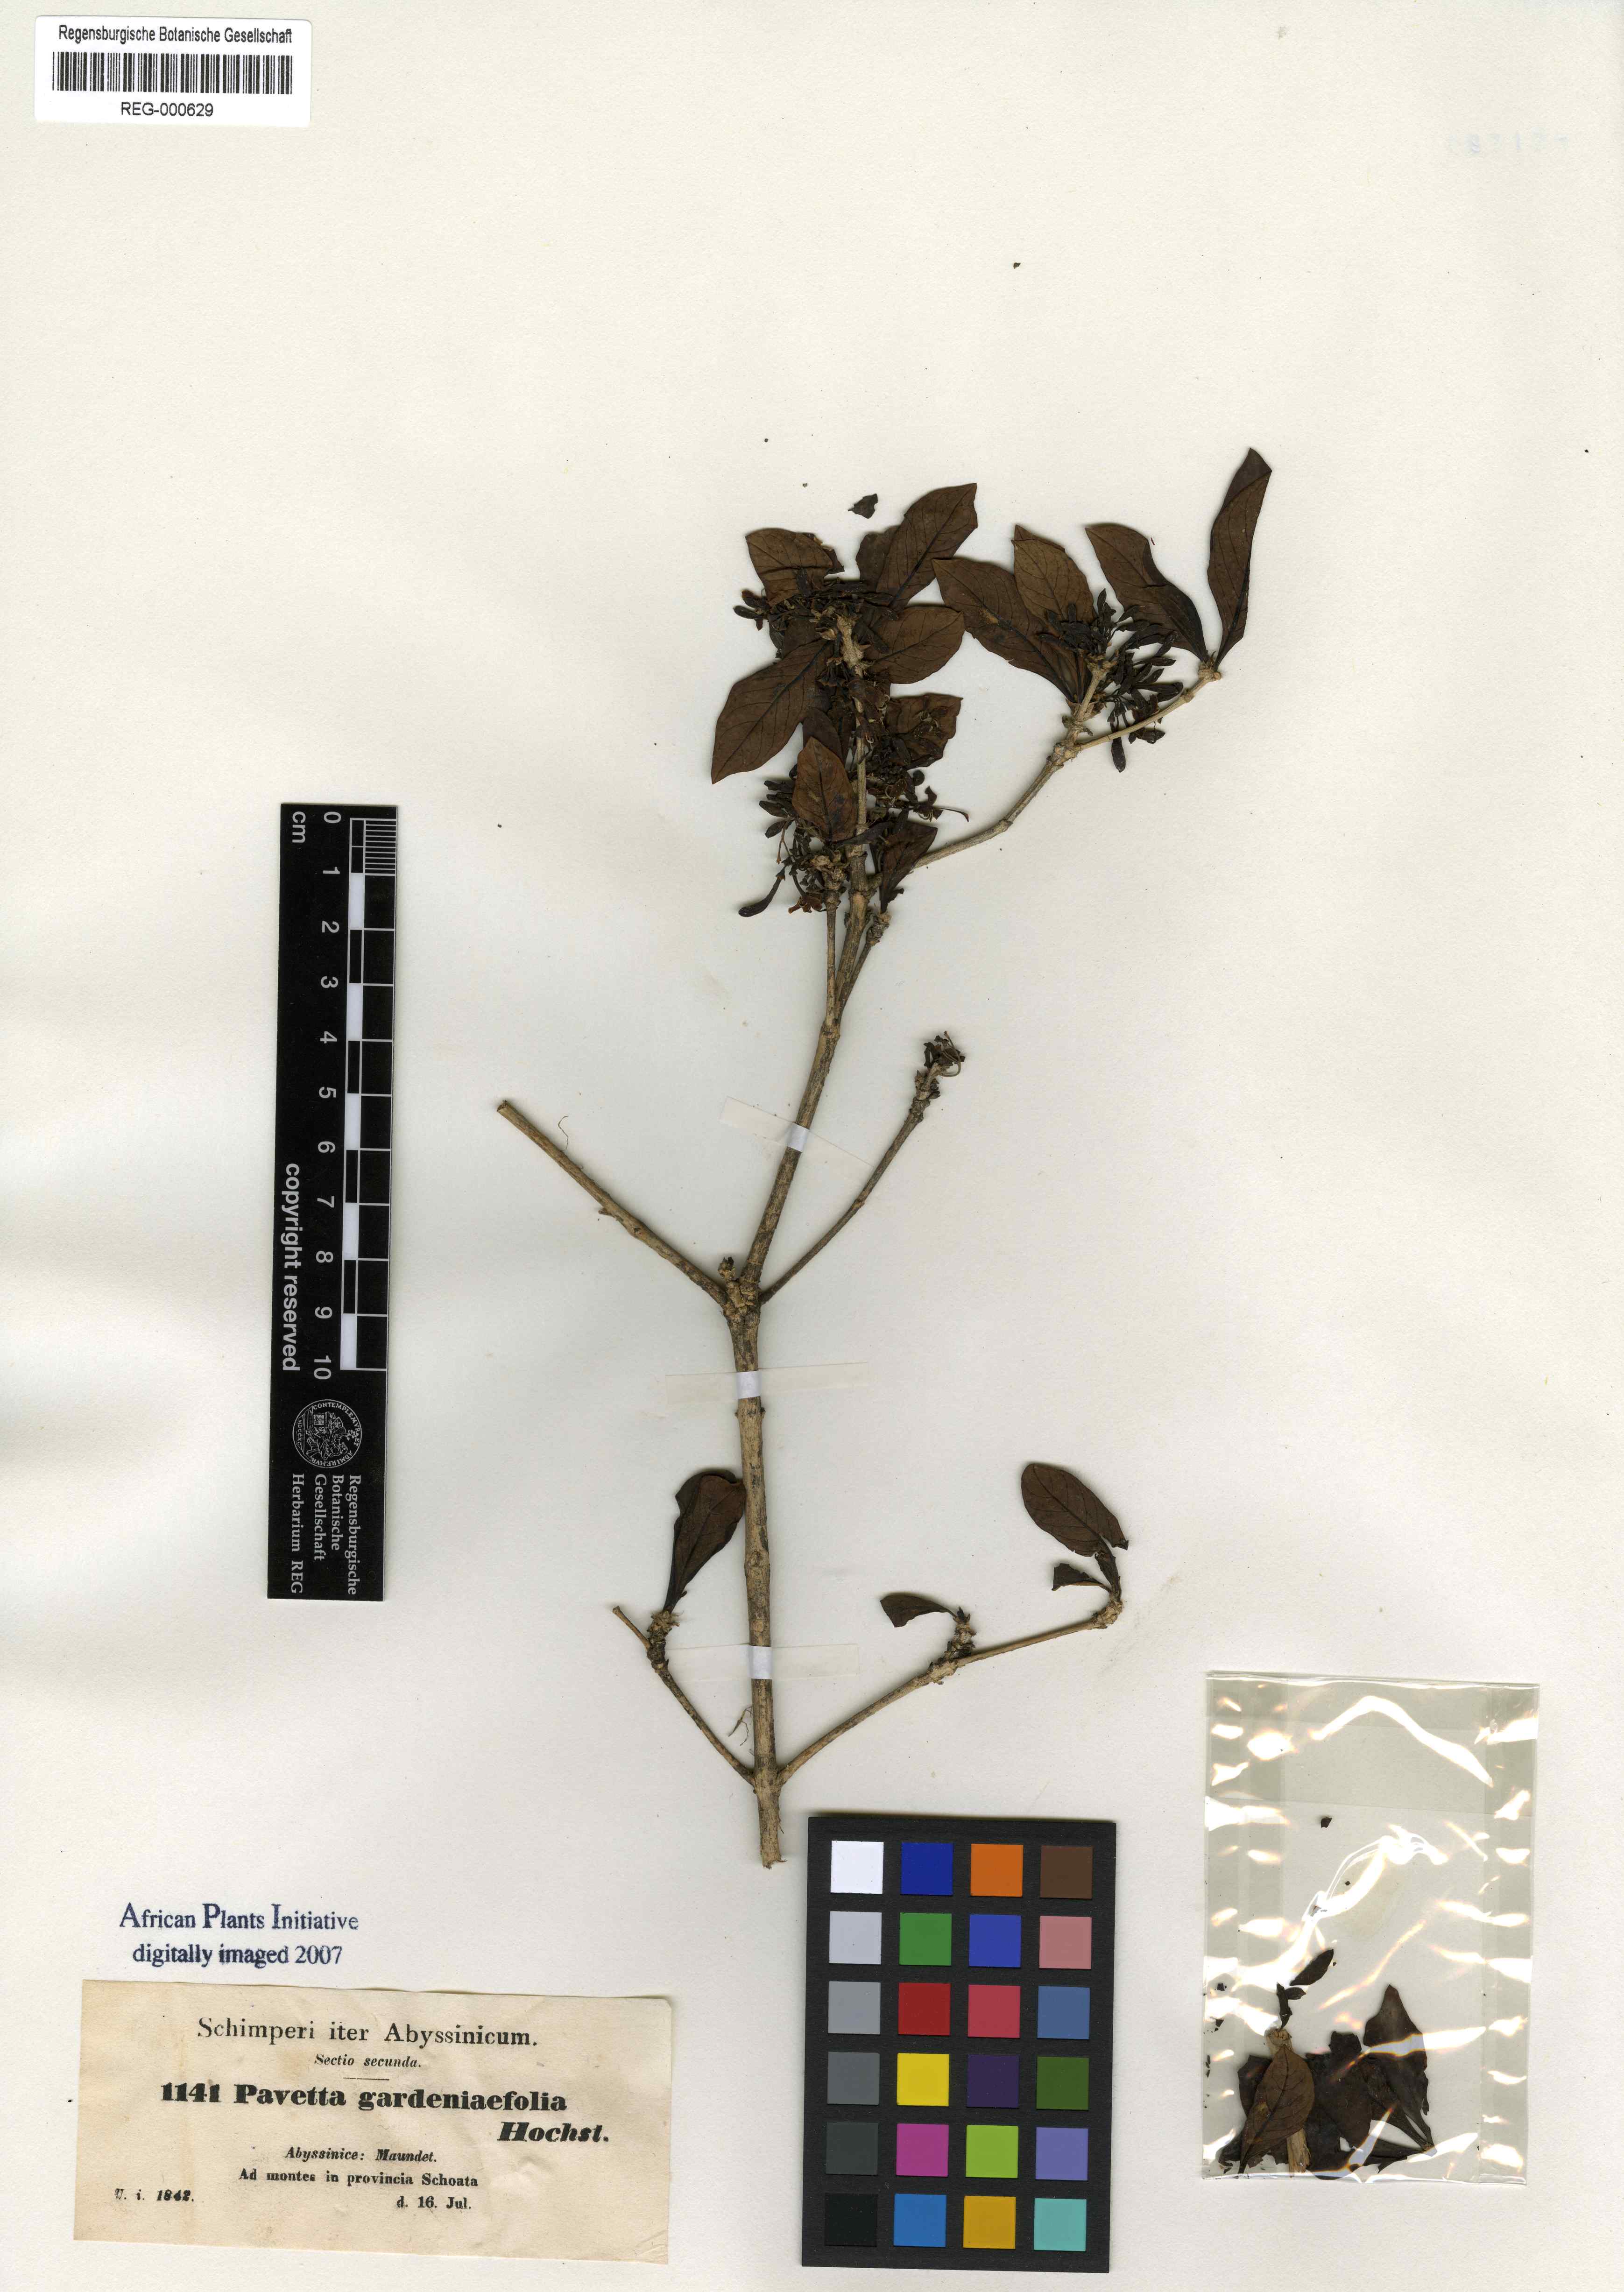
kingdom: Plantae
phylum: Tracheophyta
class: Magnoliopsida
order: Gentianales
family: Rubiaceae
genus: Pavetta
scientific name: Pavetta gardeniifolia
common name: Common brides-bush
